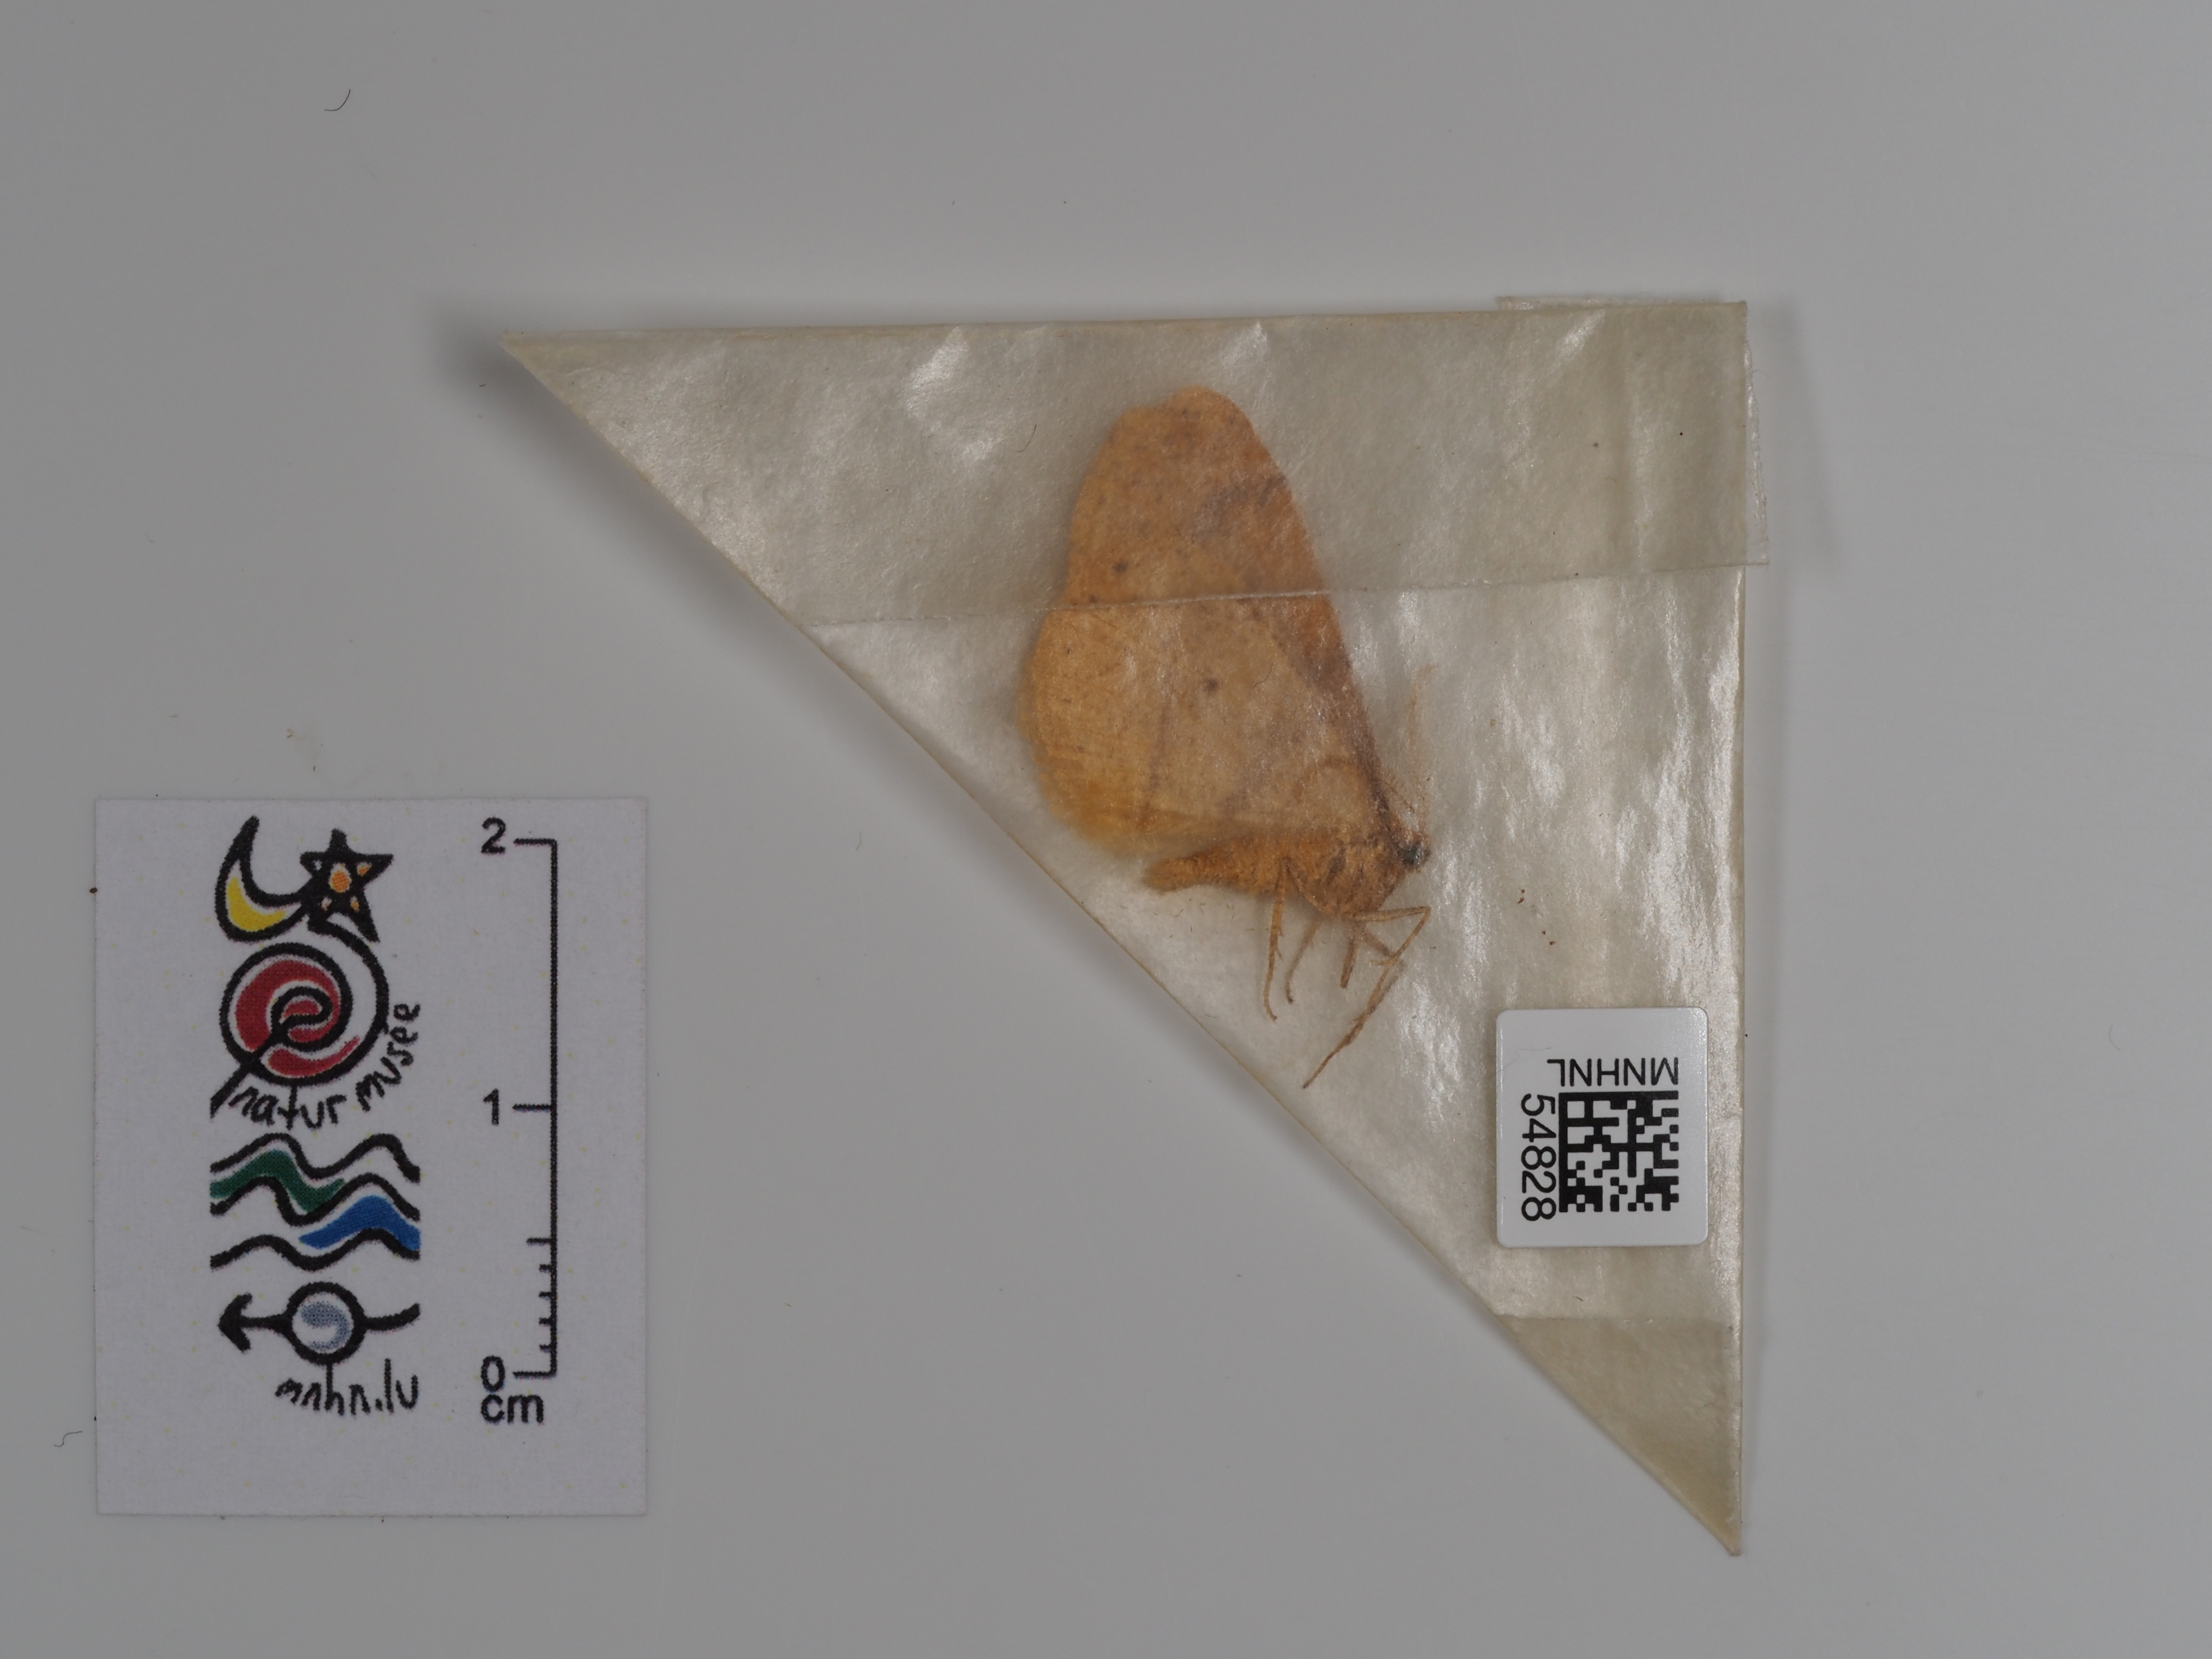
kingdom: Animalia
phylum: Arthropoda
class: Insecta
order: Lepidoptera
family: Geometridae
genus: Agriopis
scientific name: Agriopis aurantiaria
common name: Scarce umber
